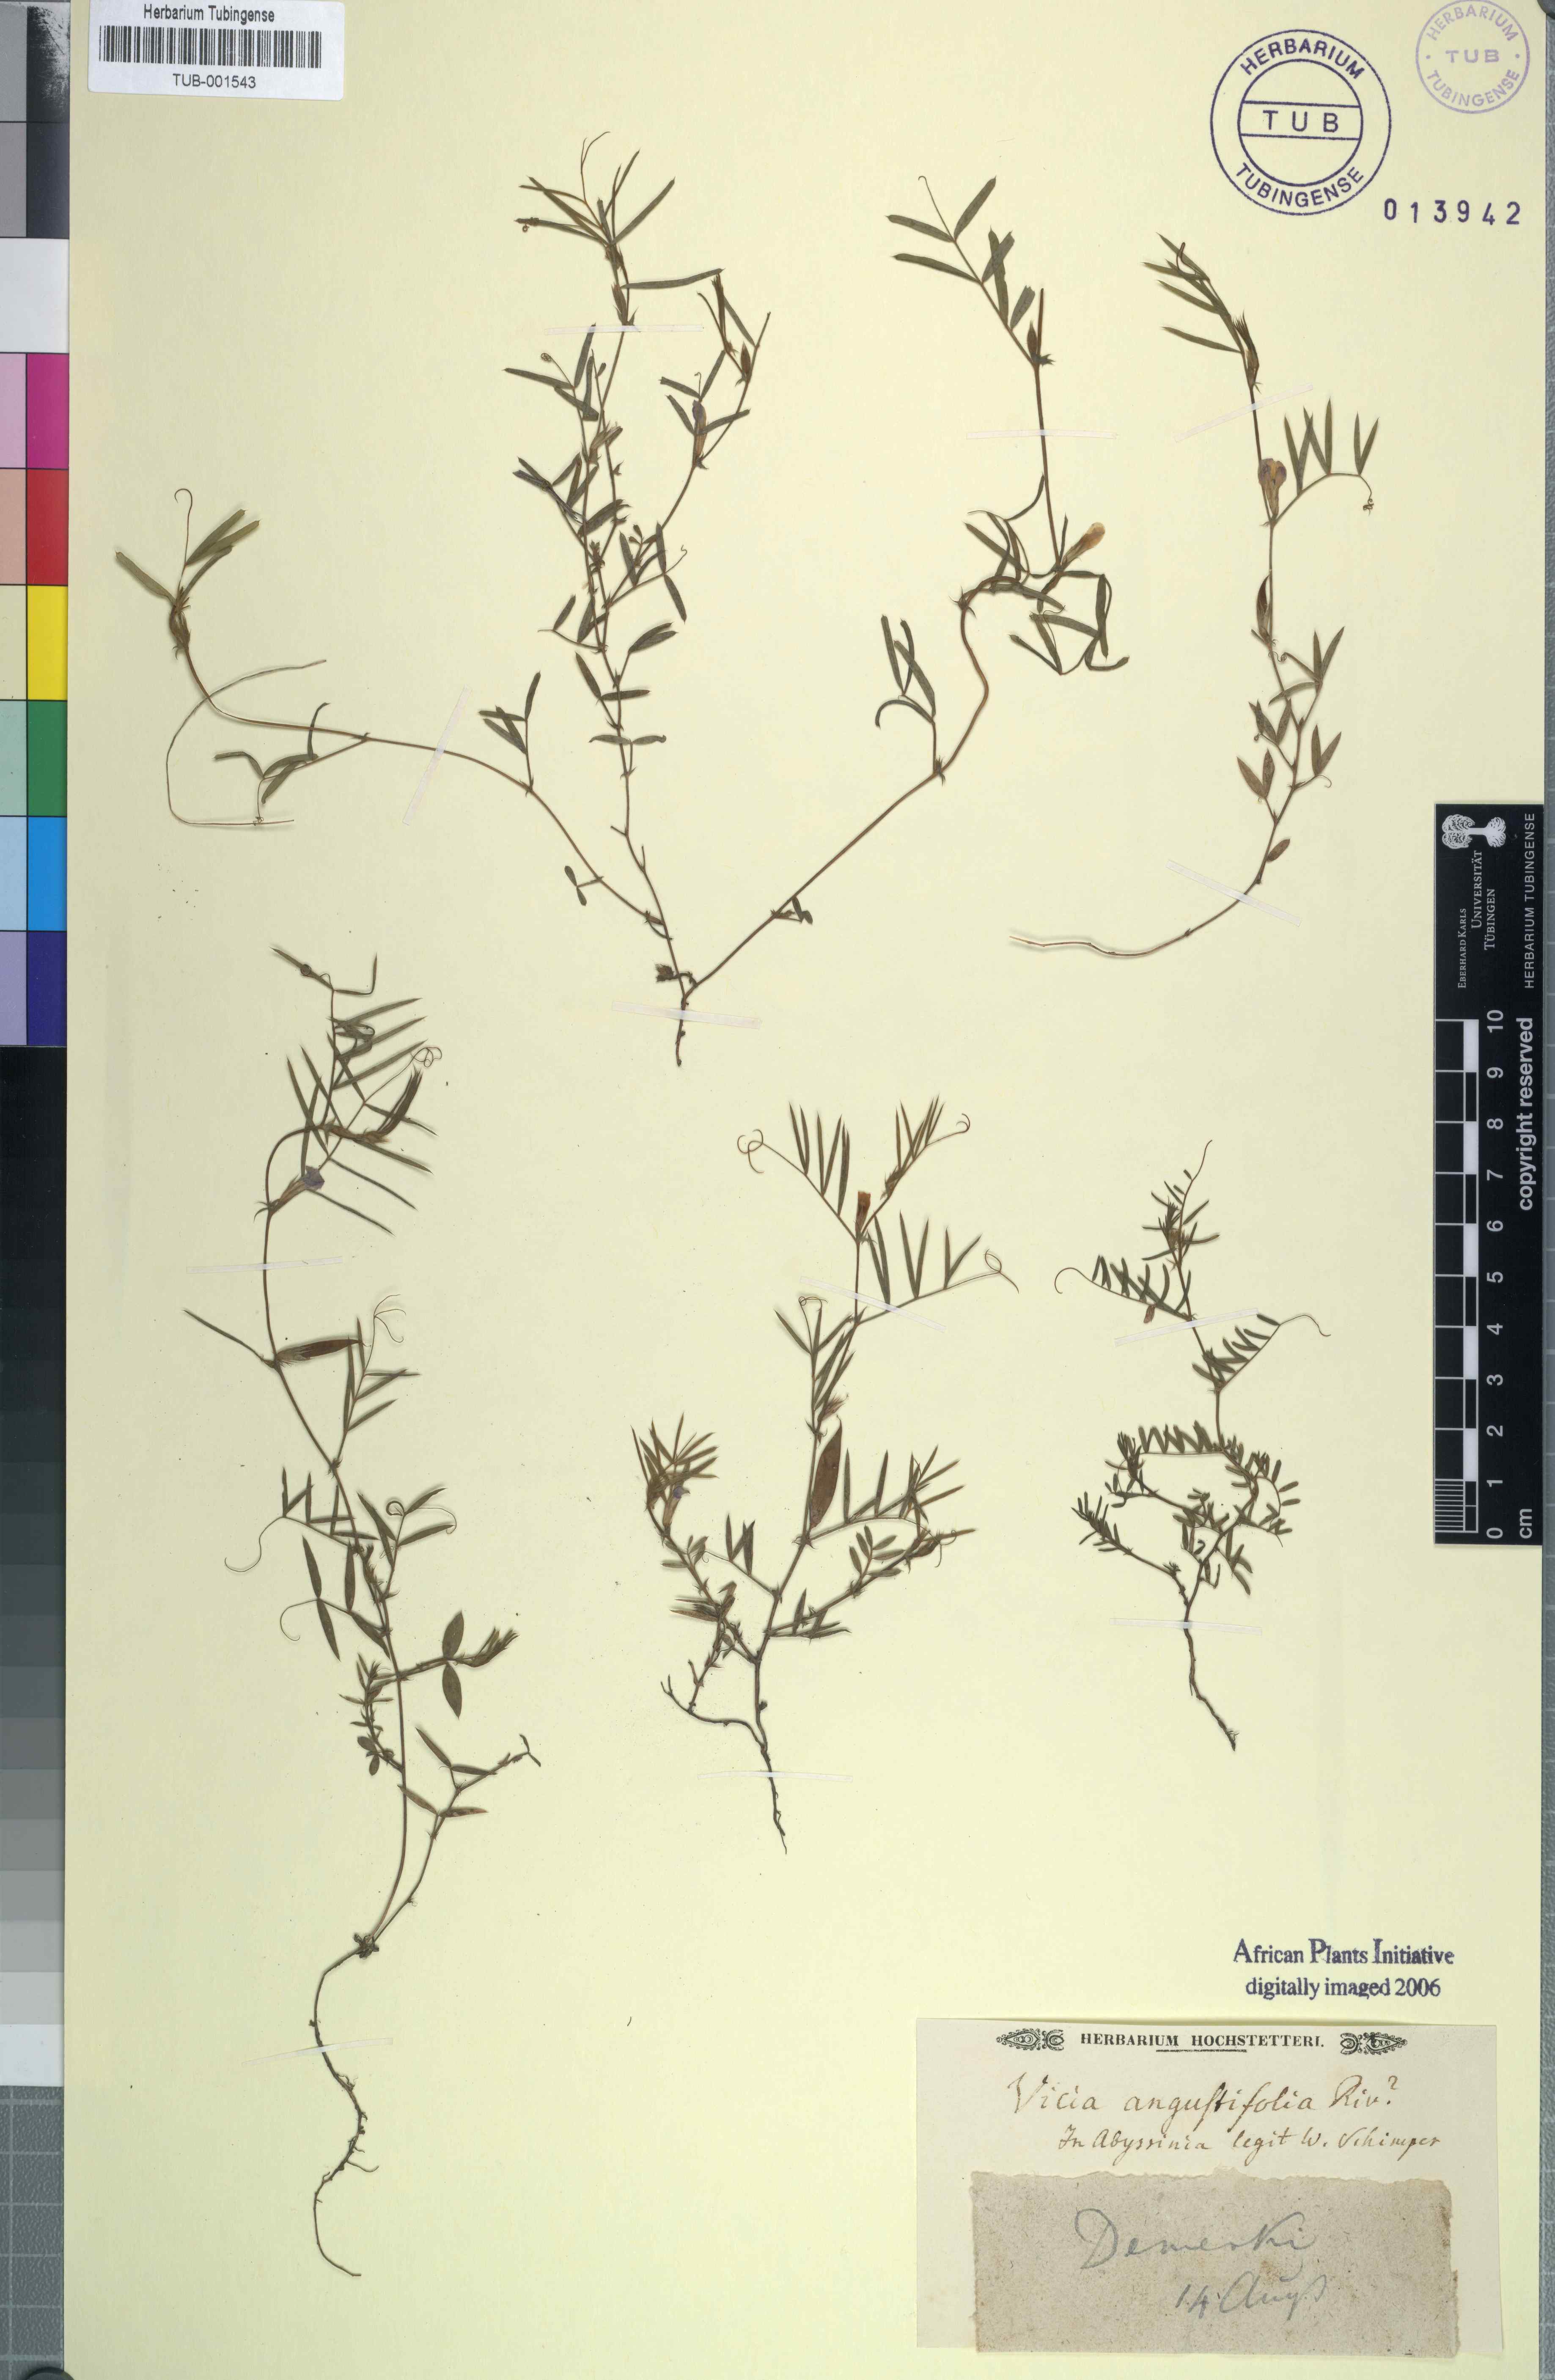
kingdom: Plantae
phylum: Tracheophyta
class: Magnoliopsida
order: Fabales
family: Fabaceae
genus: Vicia
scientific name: Vicia sativa
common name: Garden vetch
